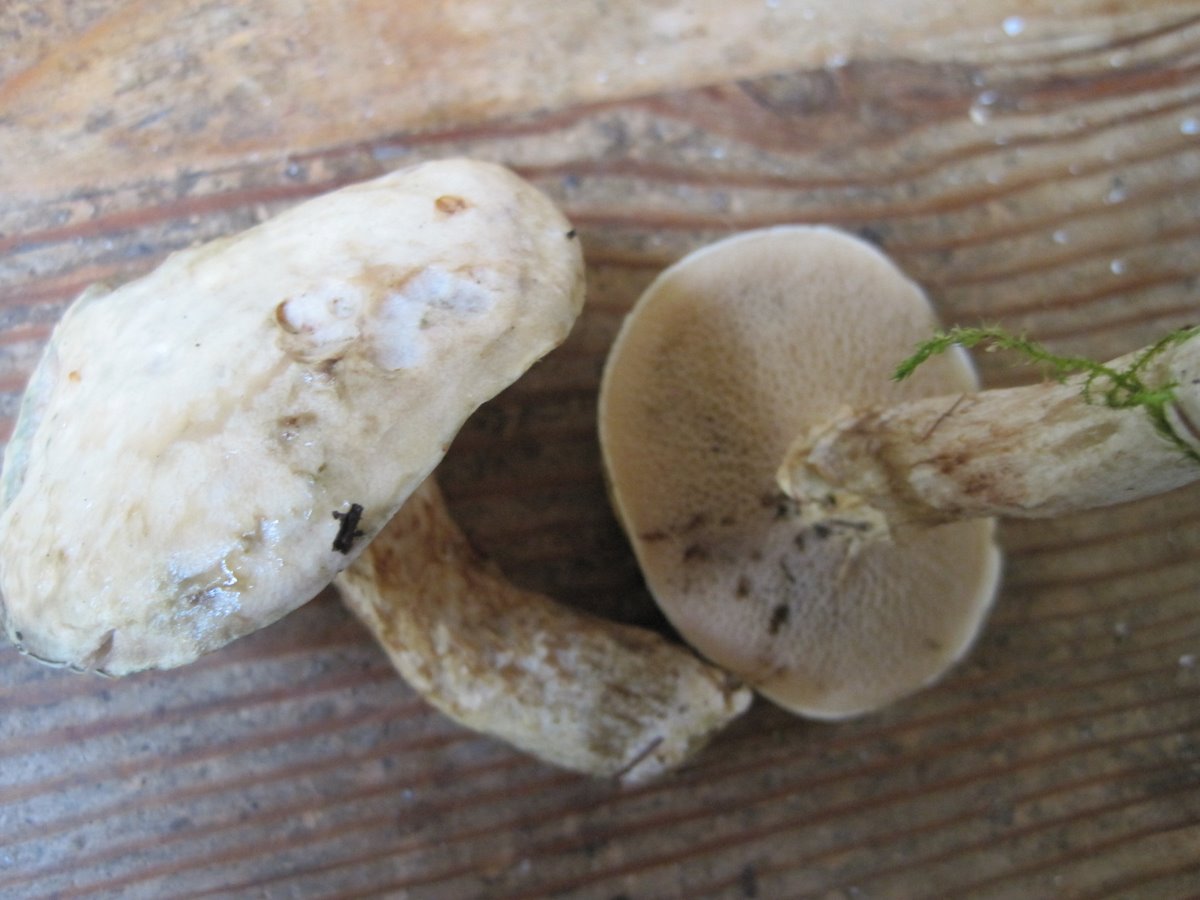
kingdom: Fungi
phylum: Basidiomycota
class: Agaricomycetes
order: Boletales
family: Suillaceae
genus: Suillus
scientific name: Suillus viscidus
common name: olivengrå slimrørhat
